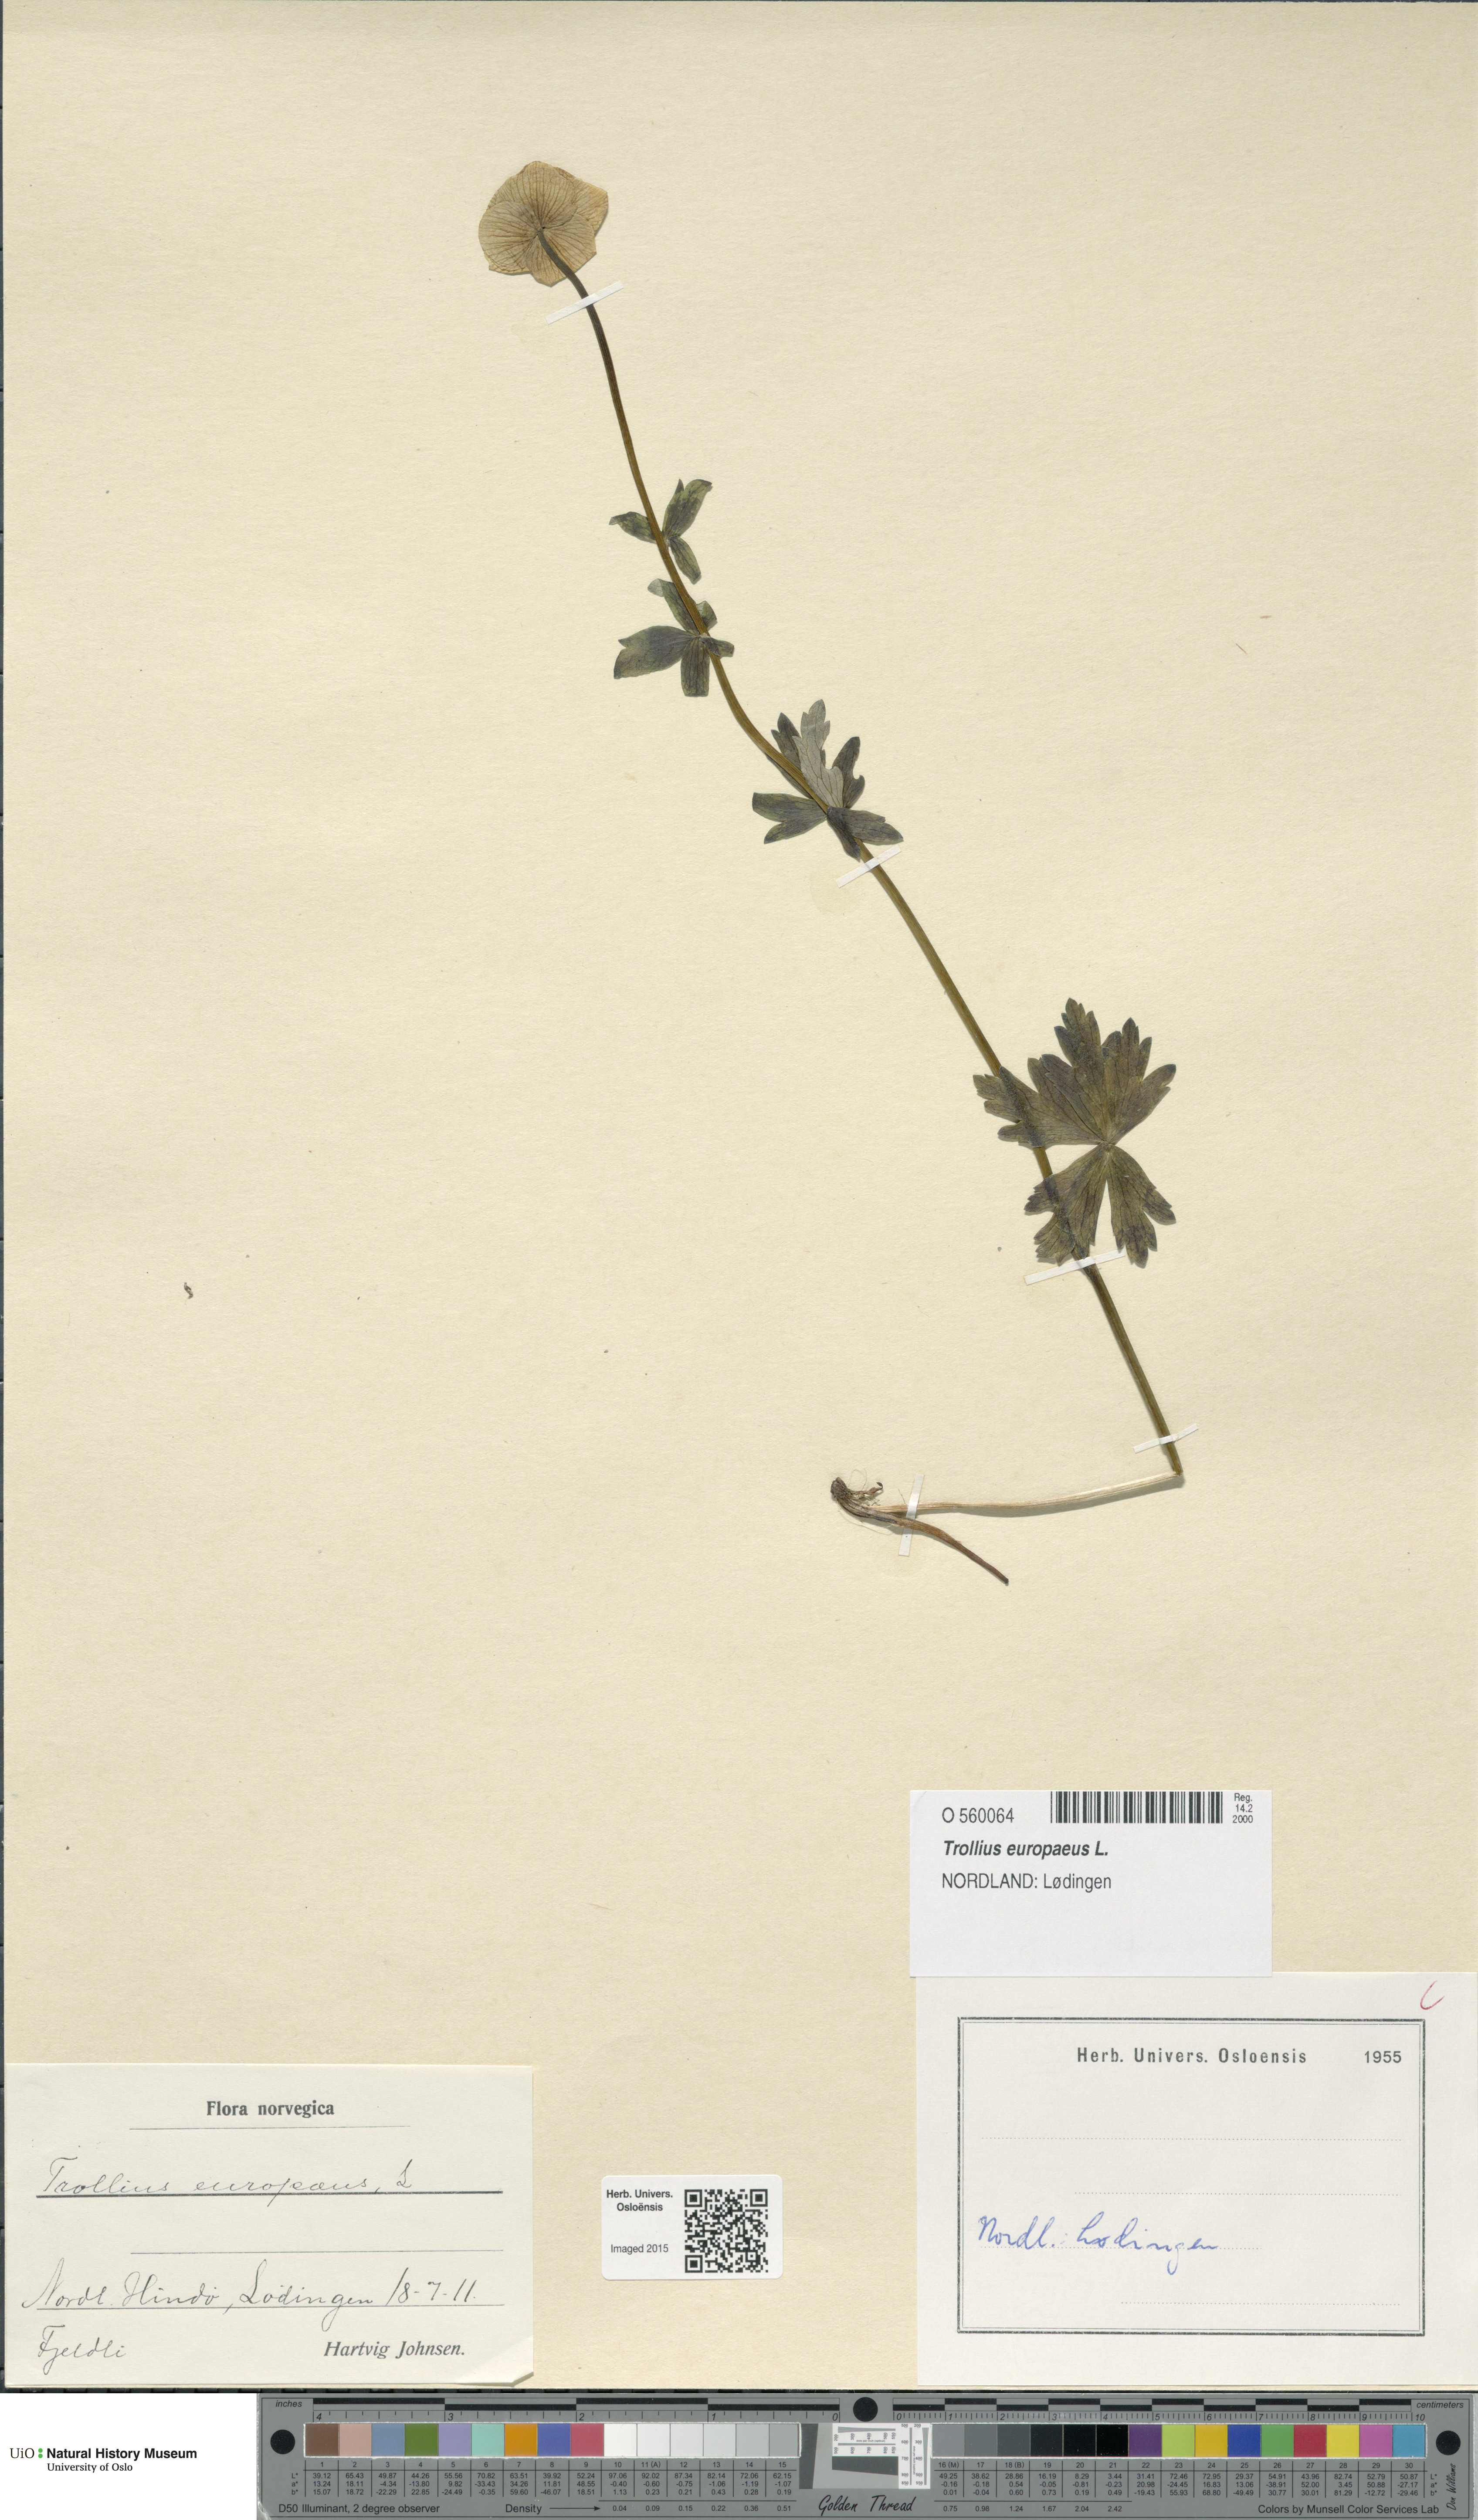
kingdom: Plantae
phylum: Tracheophyta
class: Magnoliopsida
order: Ranunculales
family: Ranunculaceae
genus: Trollius
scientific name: Trollius europaeus
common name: European globeflower
